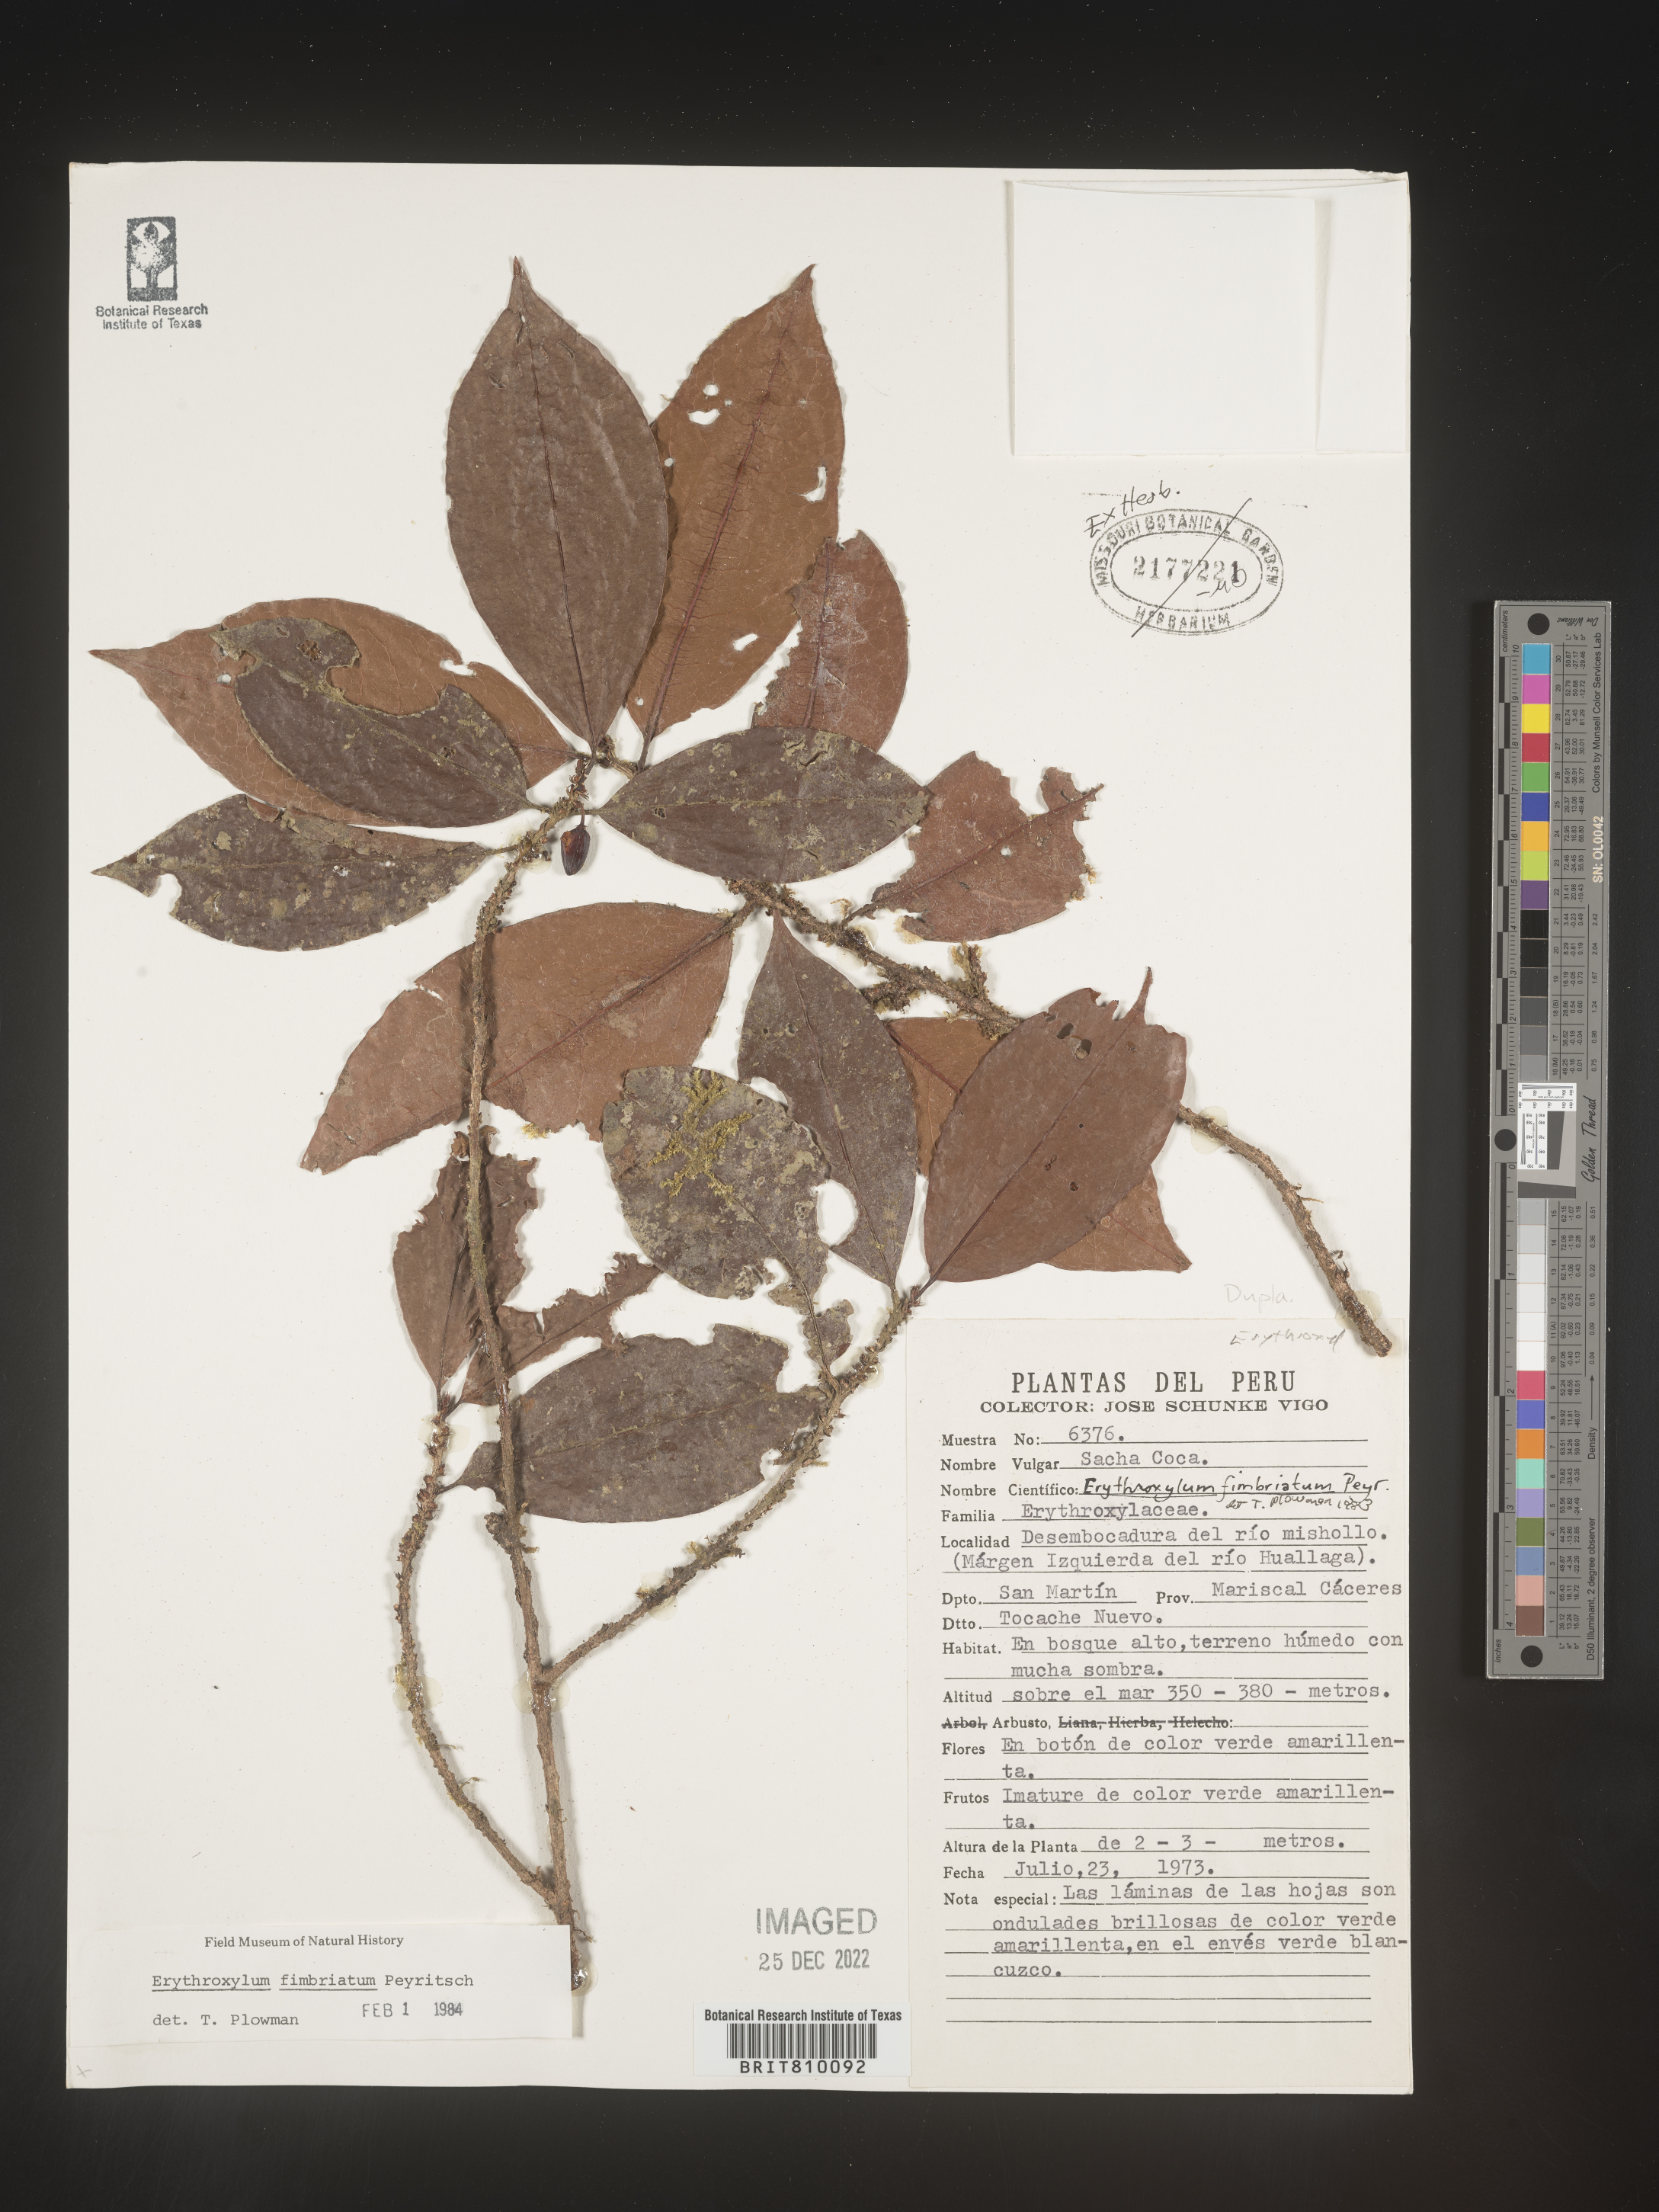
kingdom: Plantae
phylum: Tracheophyta
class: Magnoliopsida
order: Malpighiales
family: Erythroxylaceae
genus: Erythroxylum
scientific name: Erythroxylum
